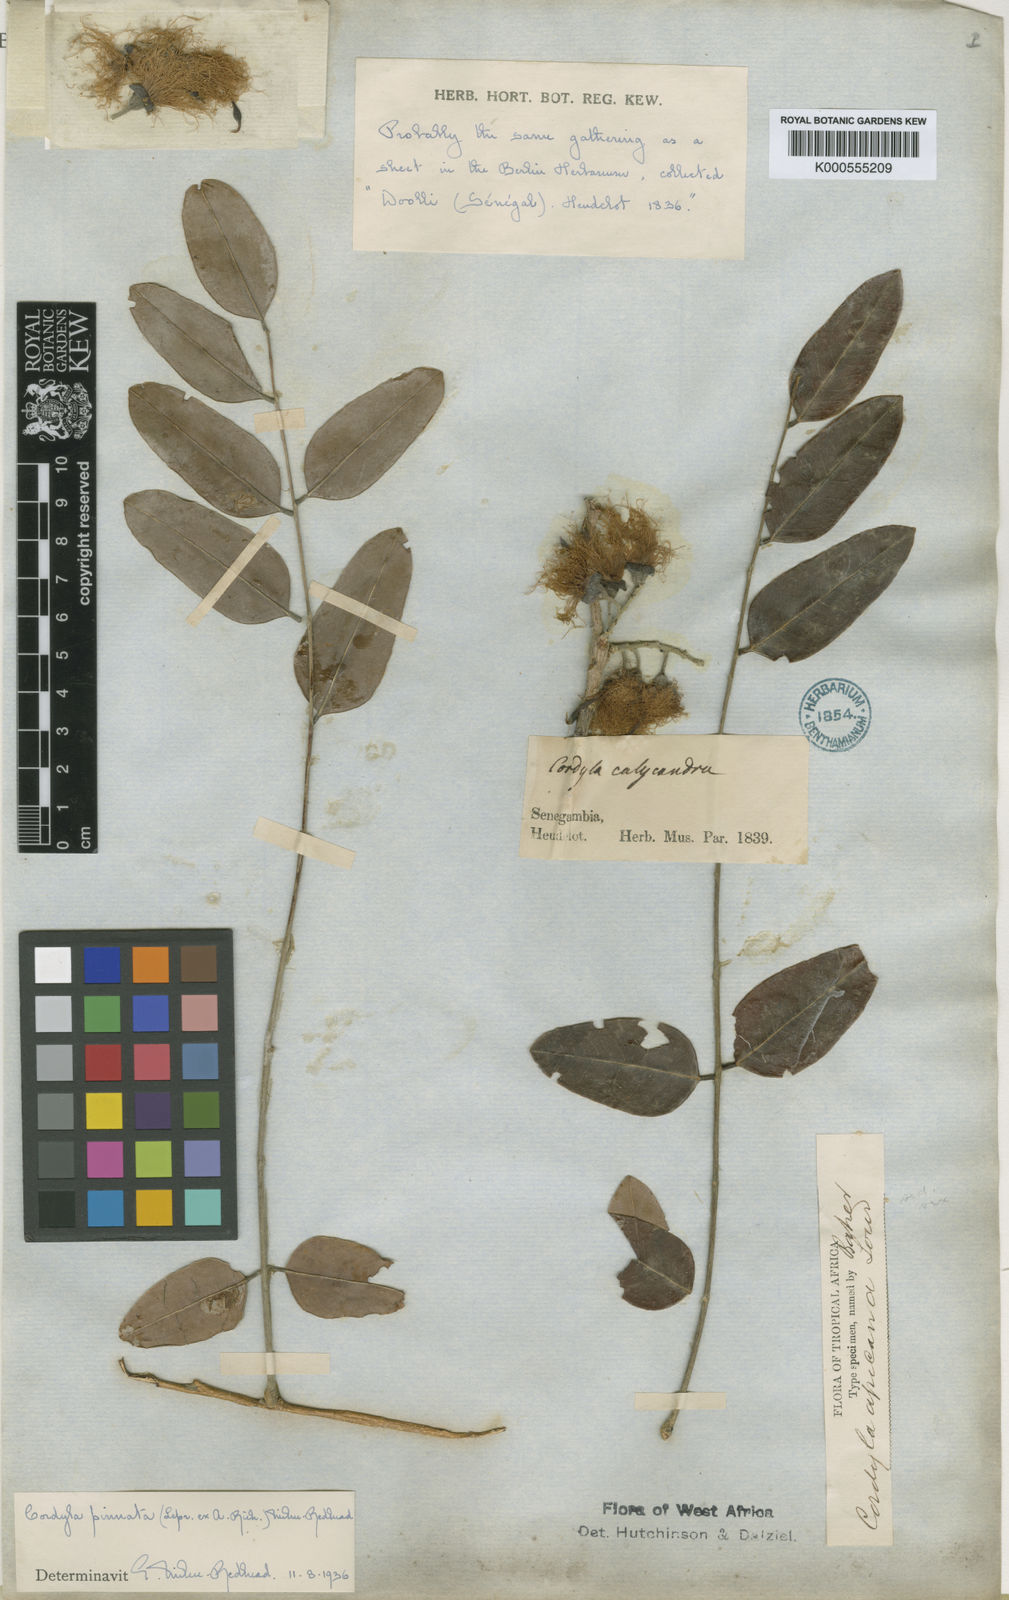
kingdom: Plantae
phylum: Tracheophyta
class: Magnoliopsida
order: Fabales
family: Fabaceae
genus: Cordyla
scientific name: Cordyla pinnata
